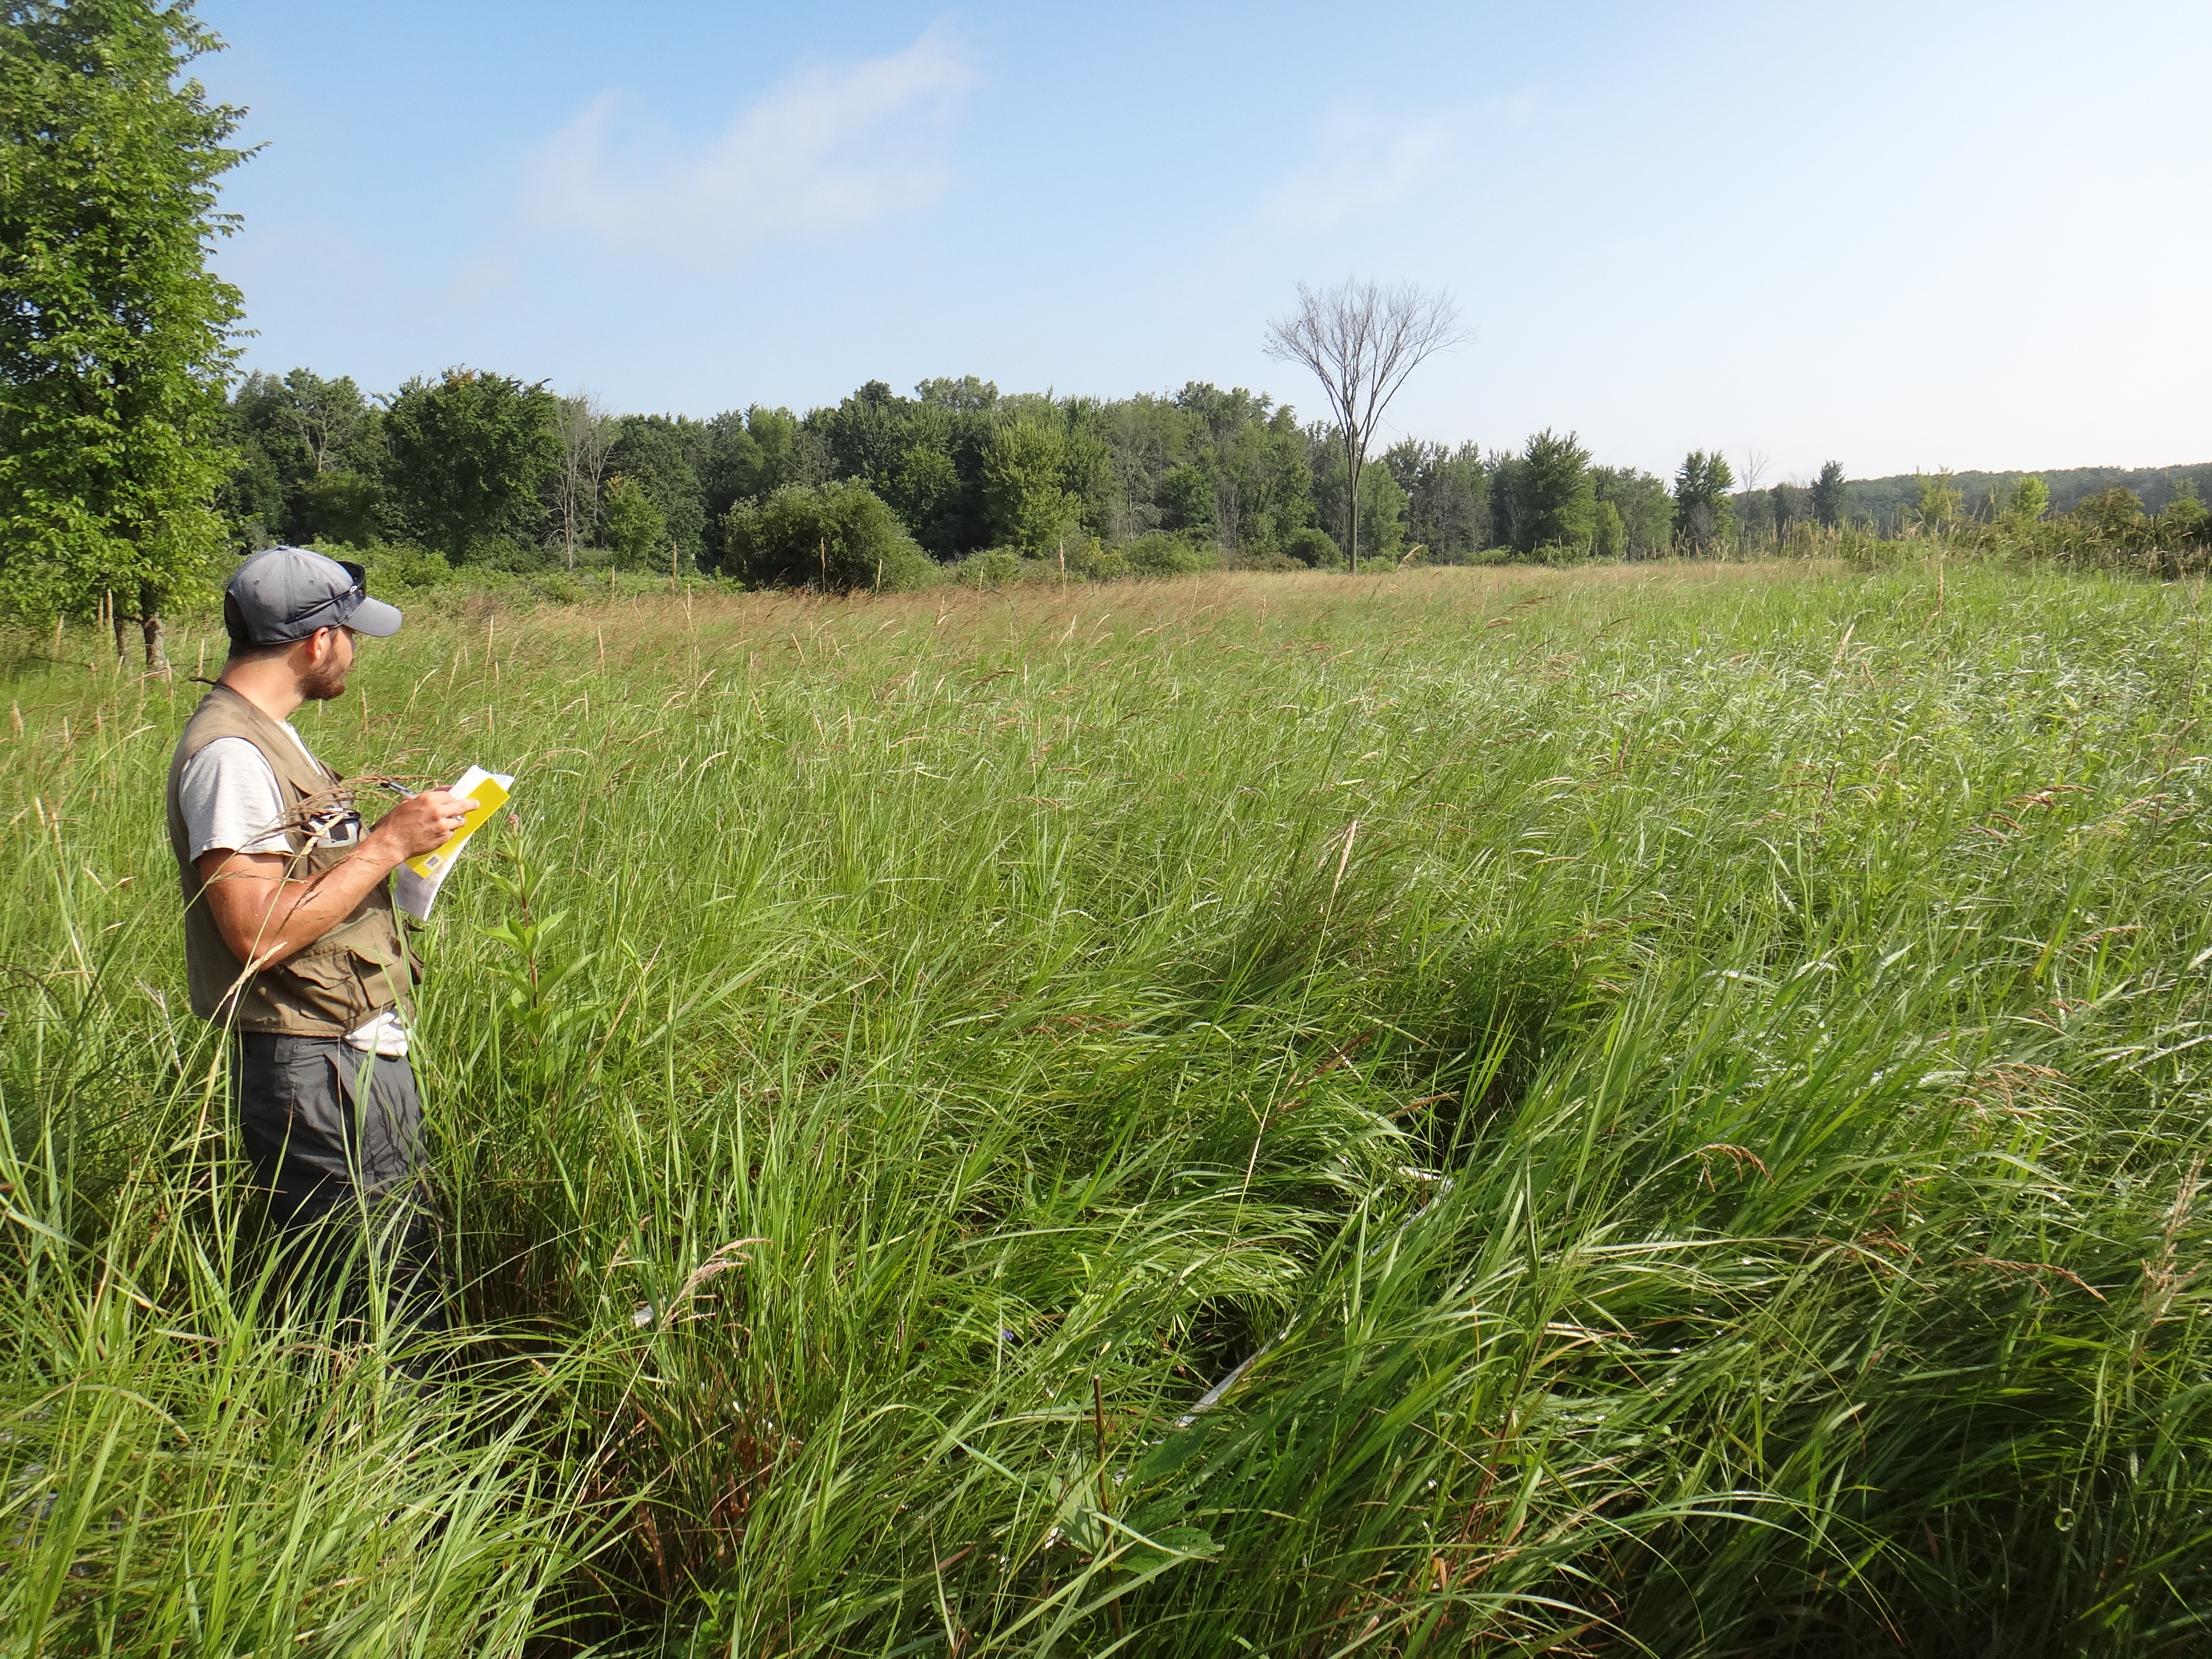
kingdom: Plantae
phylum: Tracheophyta
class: Magnoliopsida
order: Asterales
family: Campanulaceae
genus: Palustricodon
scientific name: Palustricodon aparinoides
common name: Bedstraw bellflower
